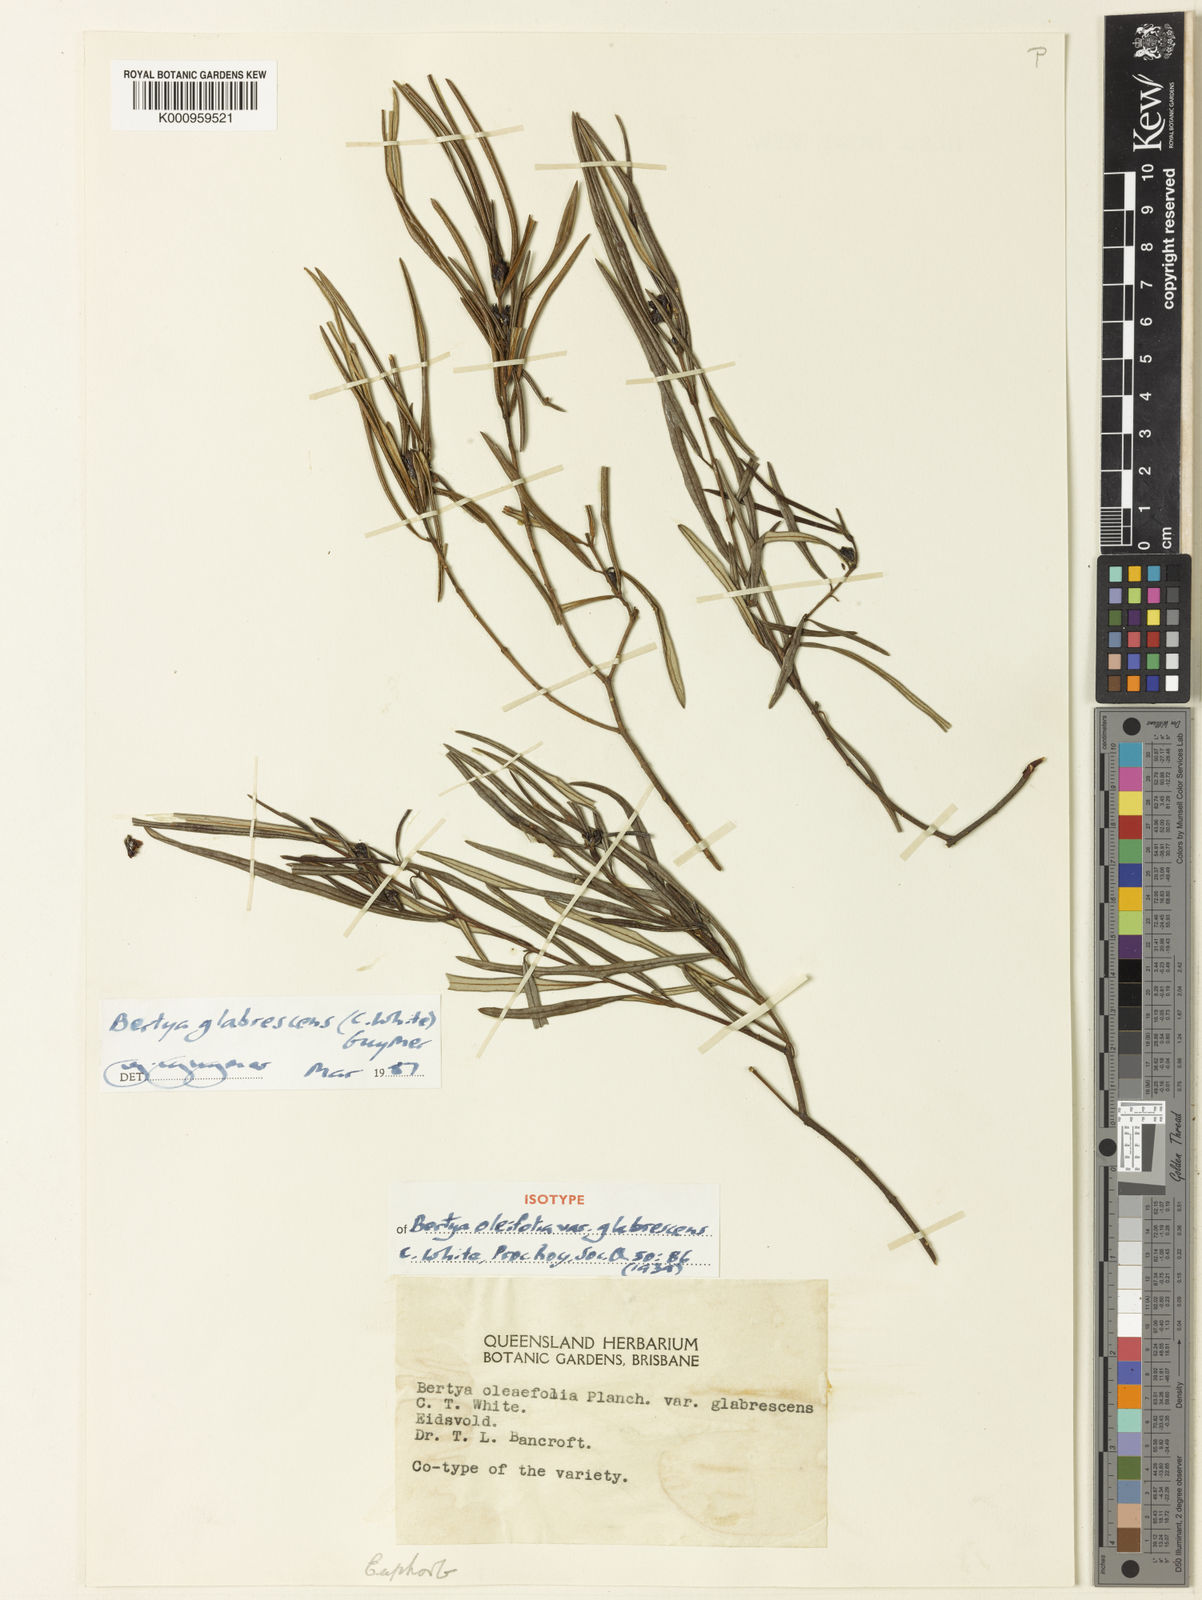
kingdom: Plantae
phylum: Tracheophyta
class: Magnoliopsida
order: Malpighiales
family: Euphorbiaceae
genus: Bertya
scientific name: Bertya pedicellata
